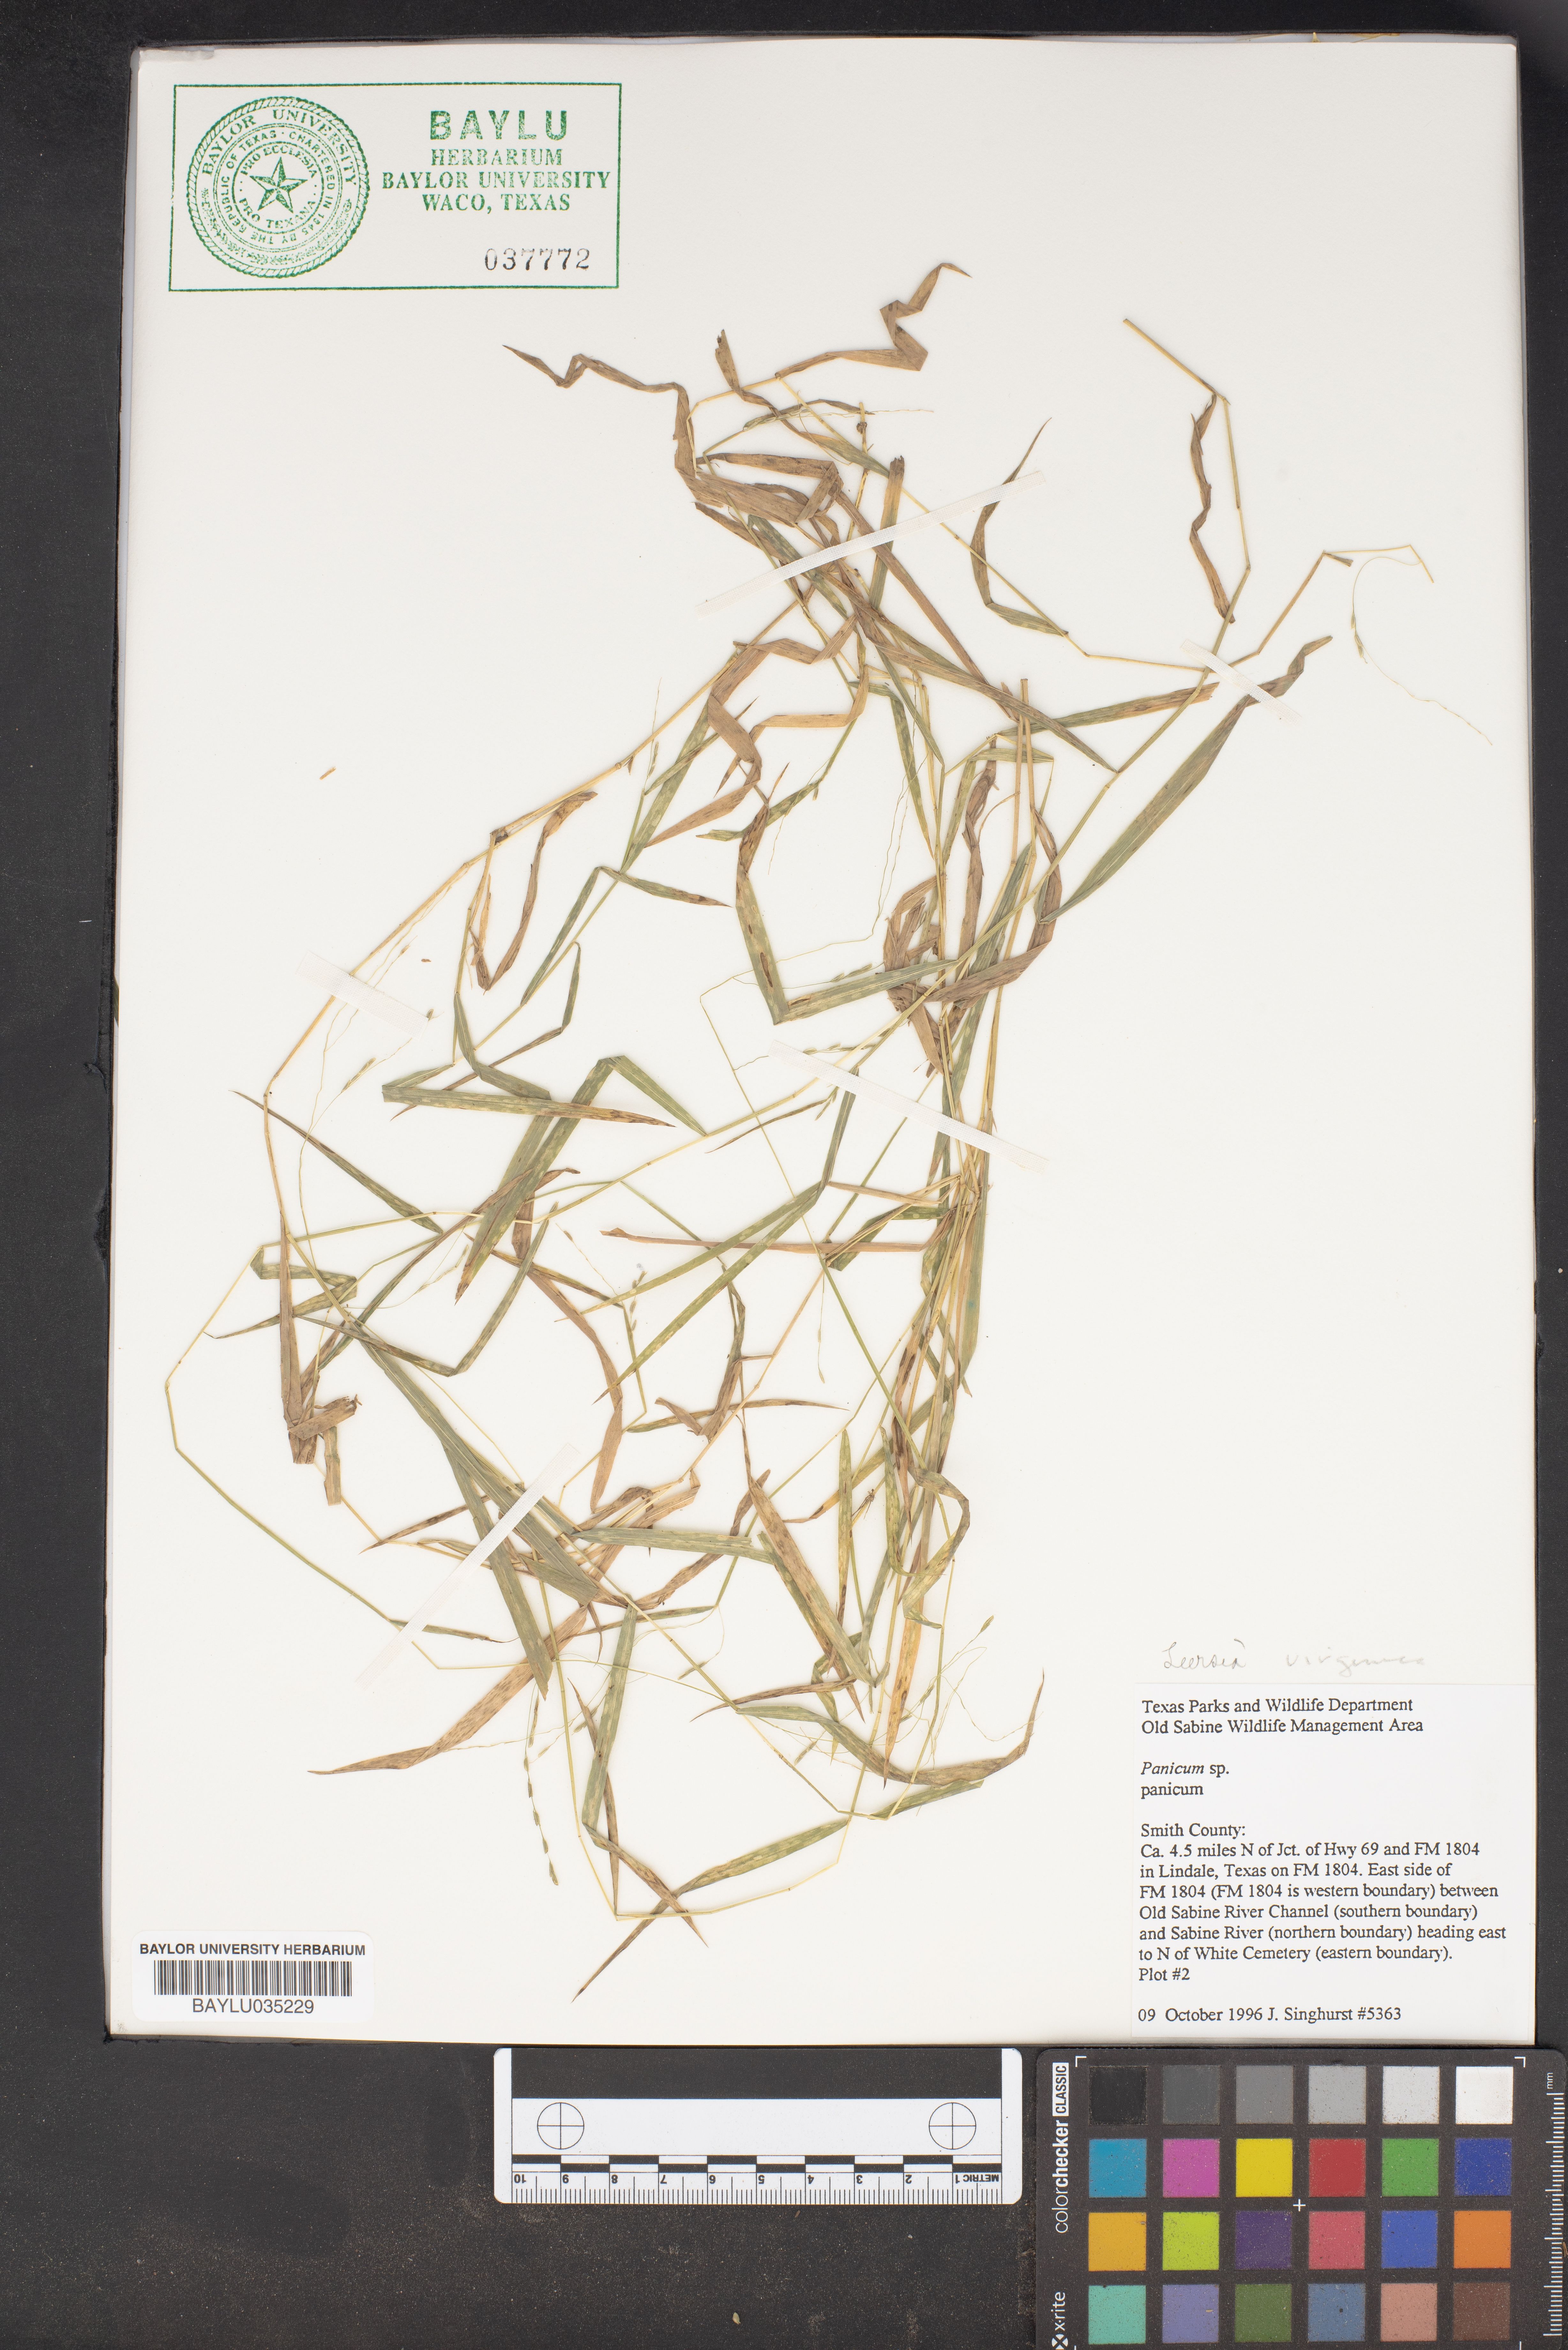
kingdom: Plantae
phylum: Tracheophyta
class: Liliopsida
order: Poales
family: Poaceae
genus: Panicum
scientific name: Panicum
